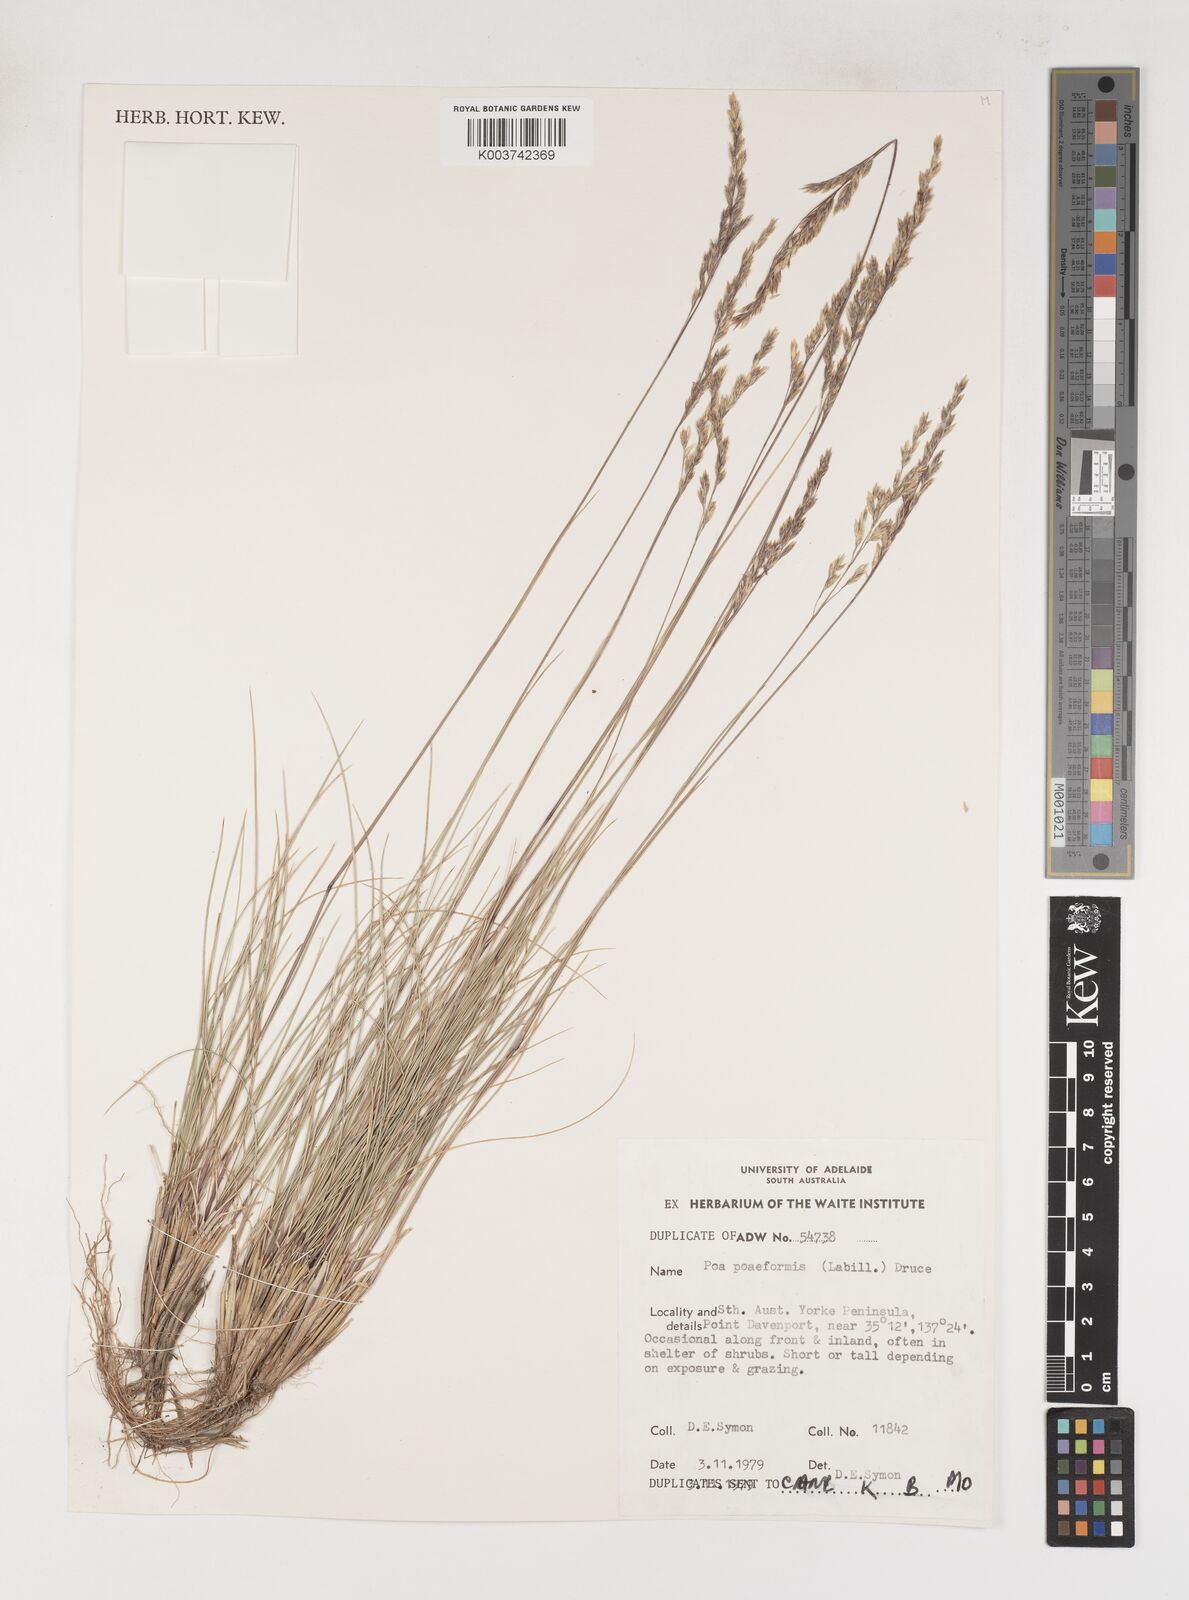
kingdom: Plantae
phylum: Tracheophyta
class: Liliopsida
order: Poales
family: Poaceae
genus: Poa
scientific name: Poa poiformis
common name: Tussock poa
